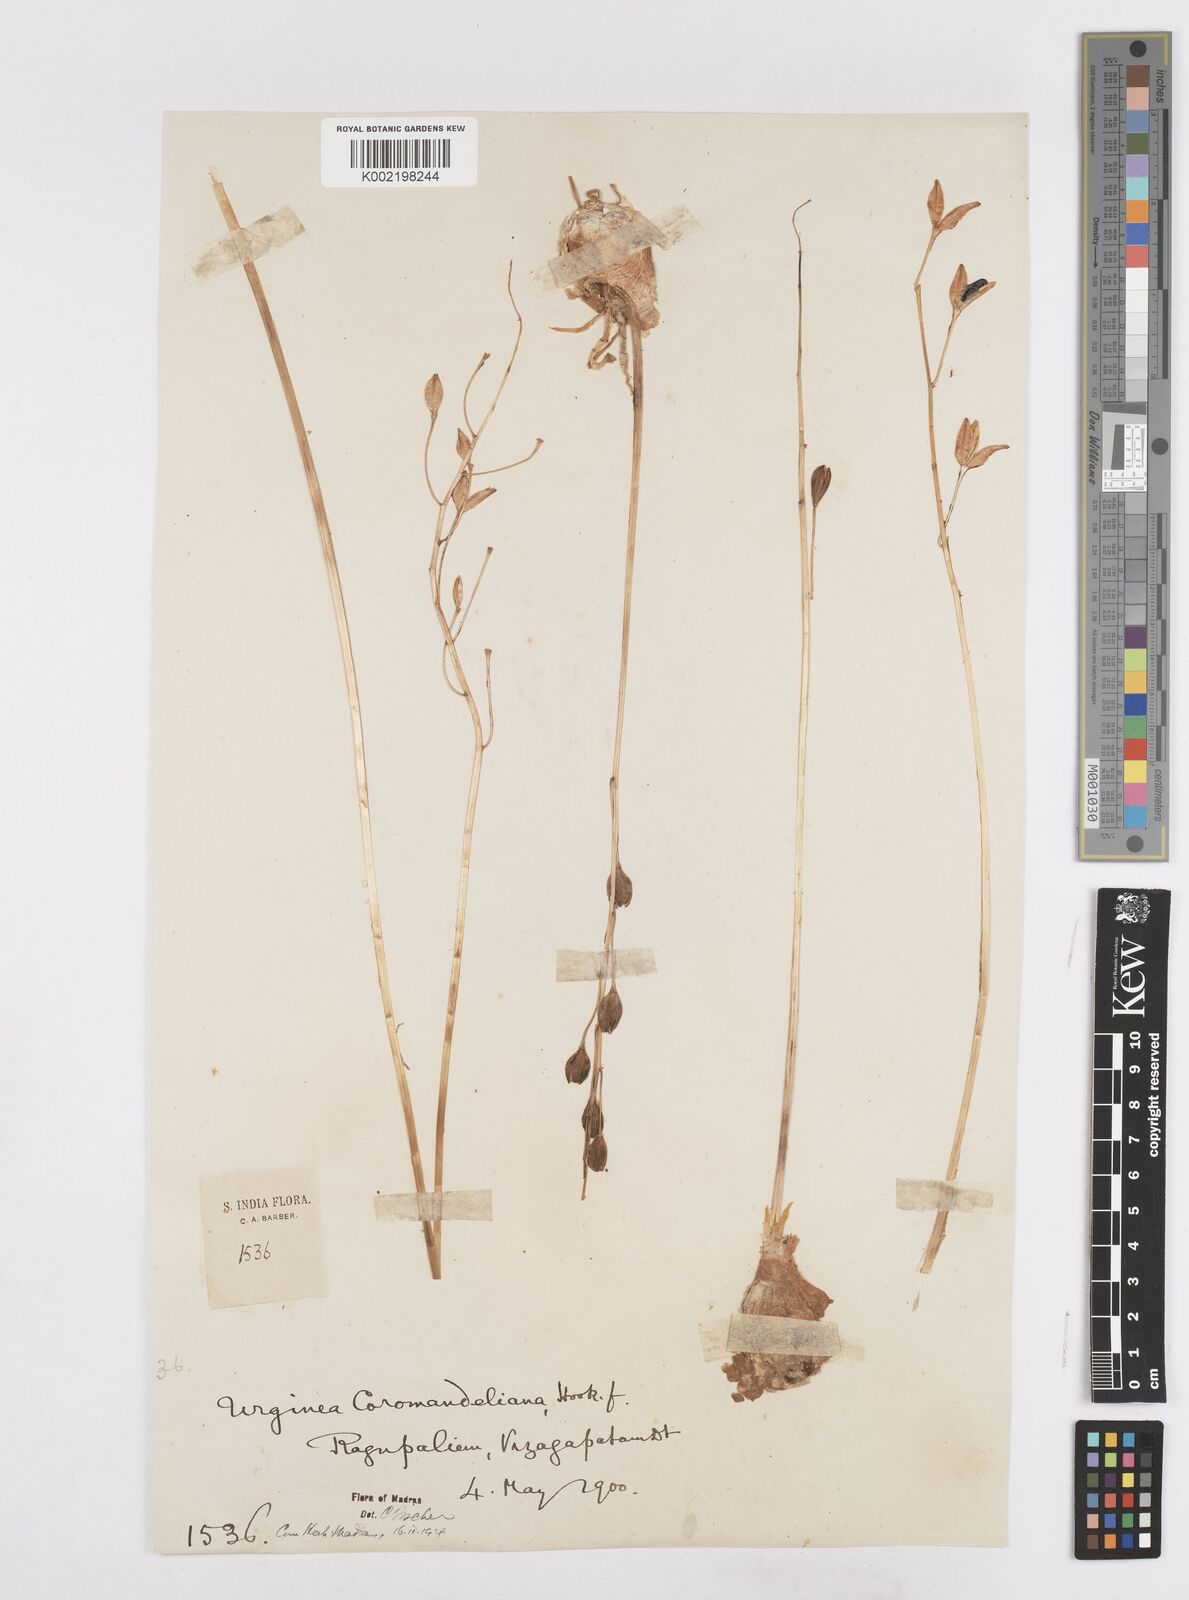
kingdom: Plantae
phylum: Tracheophyta
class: Liliopsida
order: Asparagales
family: Asparagaceae
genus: Drimia
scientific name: Drimia coromandeliana
